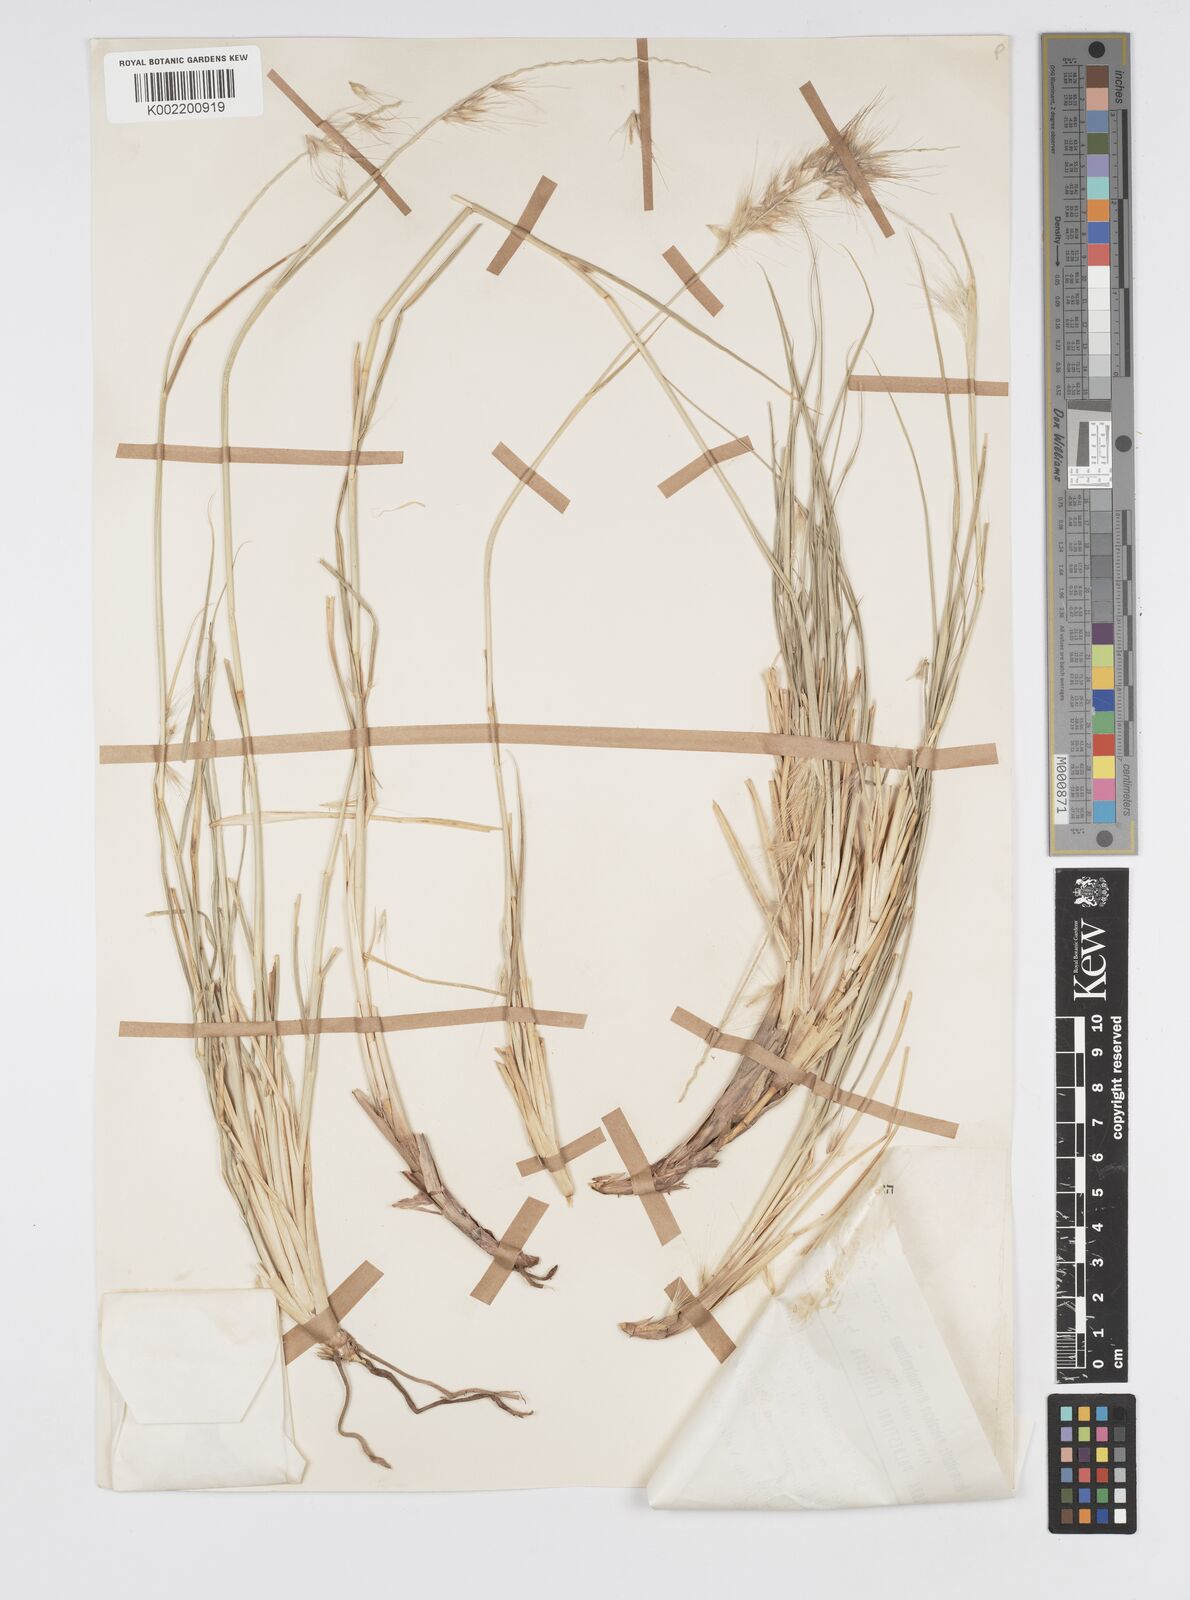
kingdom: Plantae
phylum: Tracheophyta
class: Liliopsida
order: Poales
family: Poaceae
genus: Cenchrus
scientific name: Cenchrus setaceus
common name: Crimson fountaingrass
